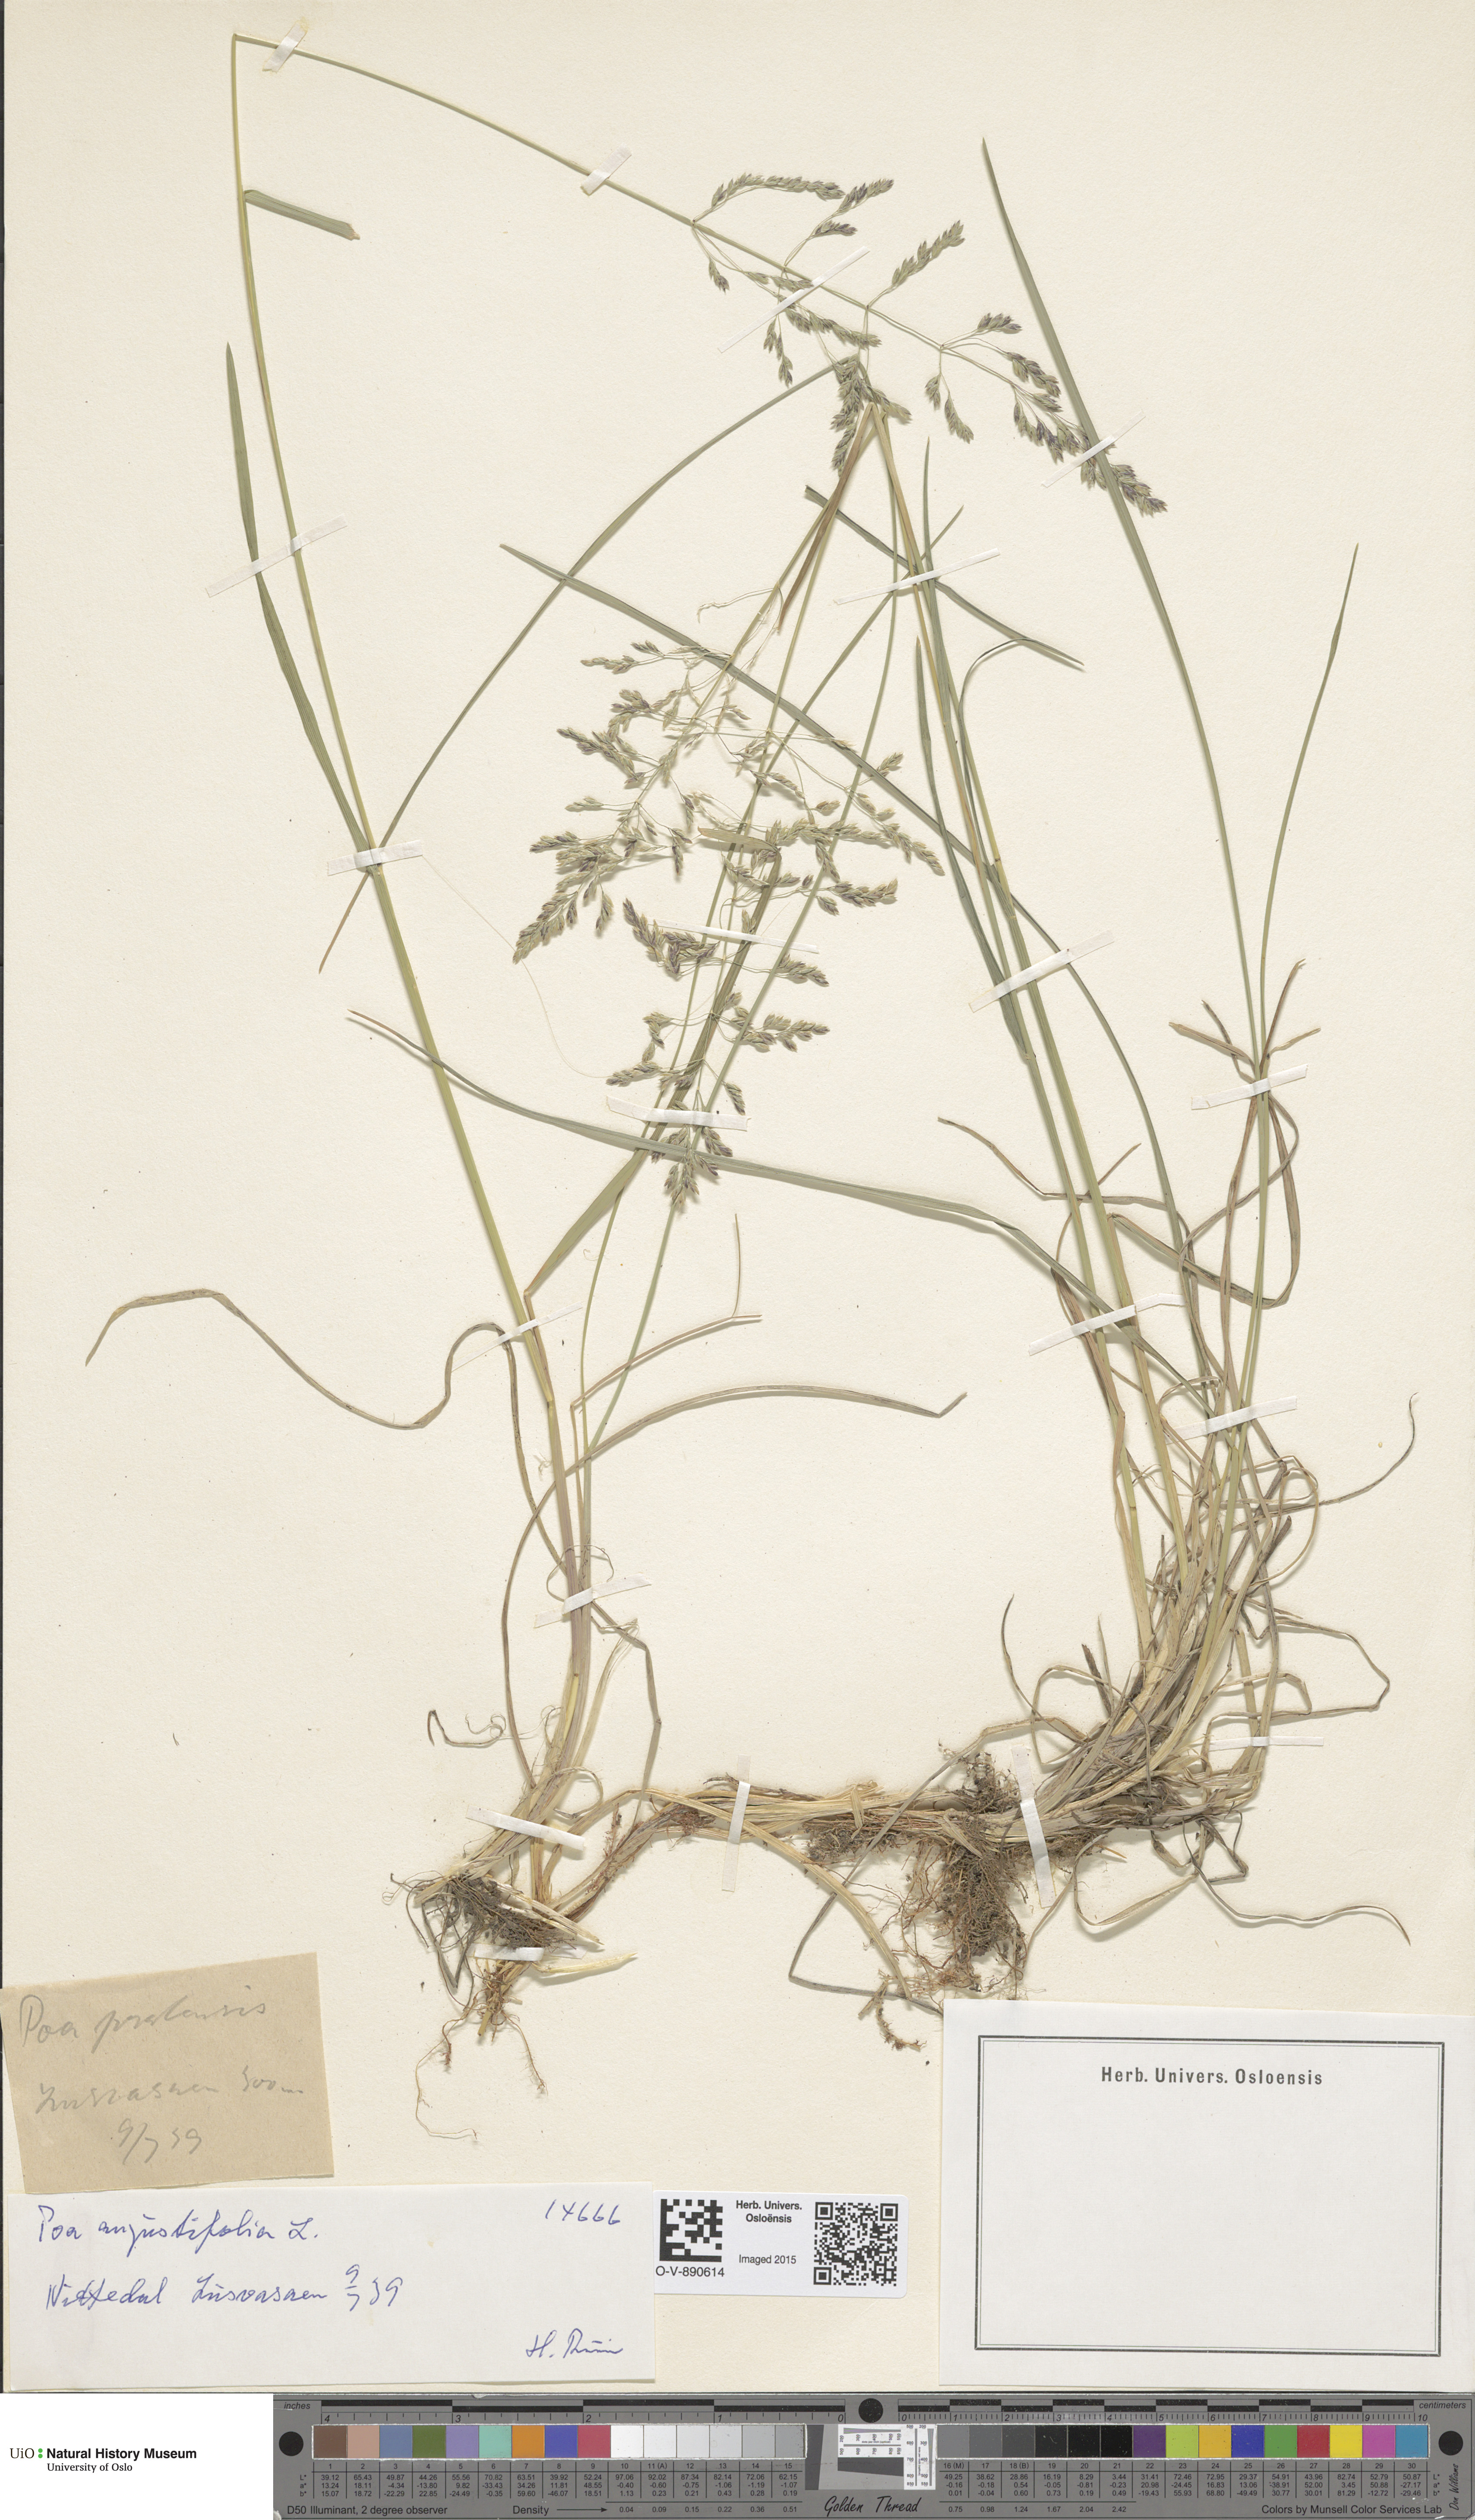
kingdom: Plantae
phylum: Tracheophyta
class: Liliopsida
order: Poales
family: Poaceae
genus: Poa
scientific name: Poa angustifolia
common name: Narrow-leaved meadow-grass
